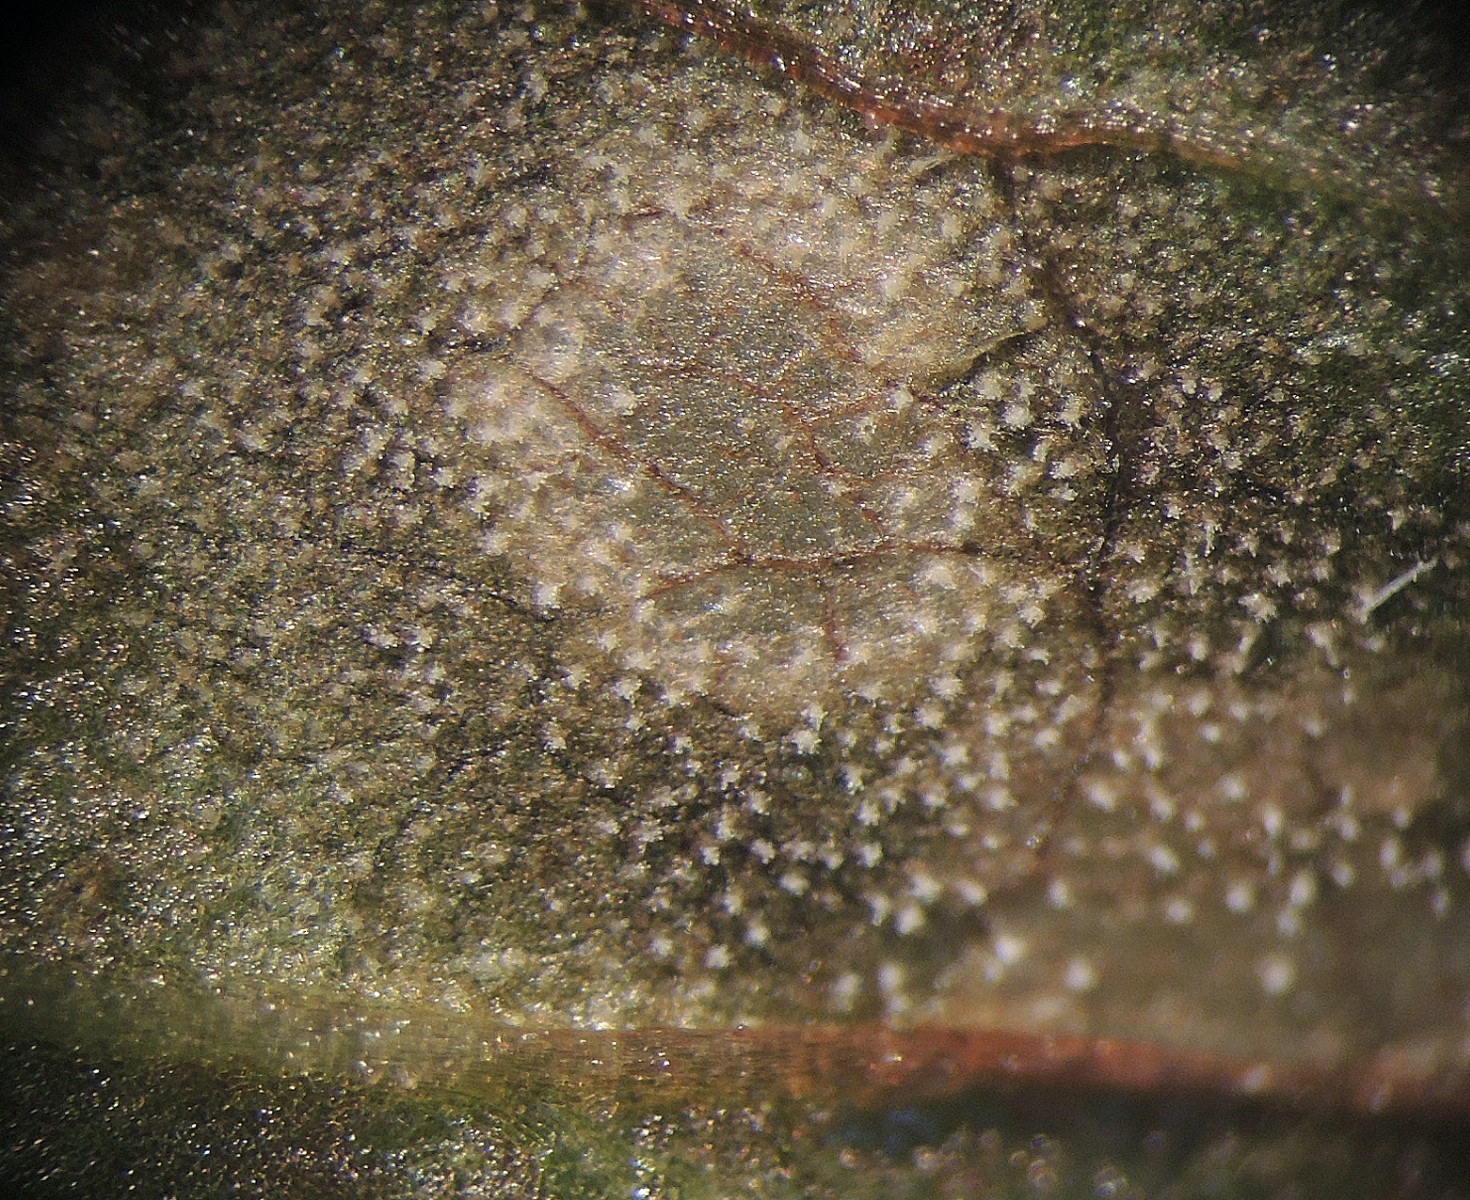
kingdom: Fungi
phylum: Ascomycota
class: Dothideomycetes
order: Mycosphaerellales
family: Mycosphaerellaceae
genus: Ramularia
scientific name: Ramularia rubella
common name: Red dock spot
